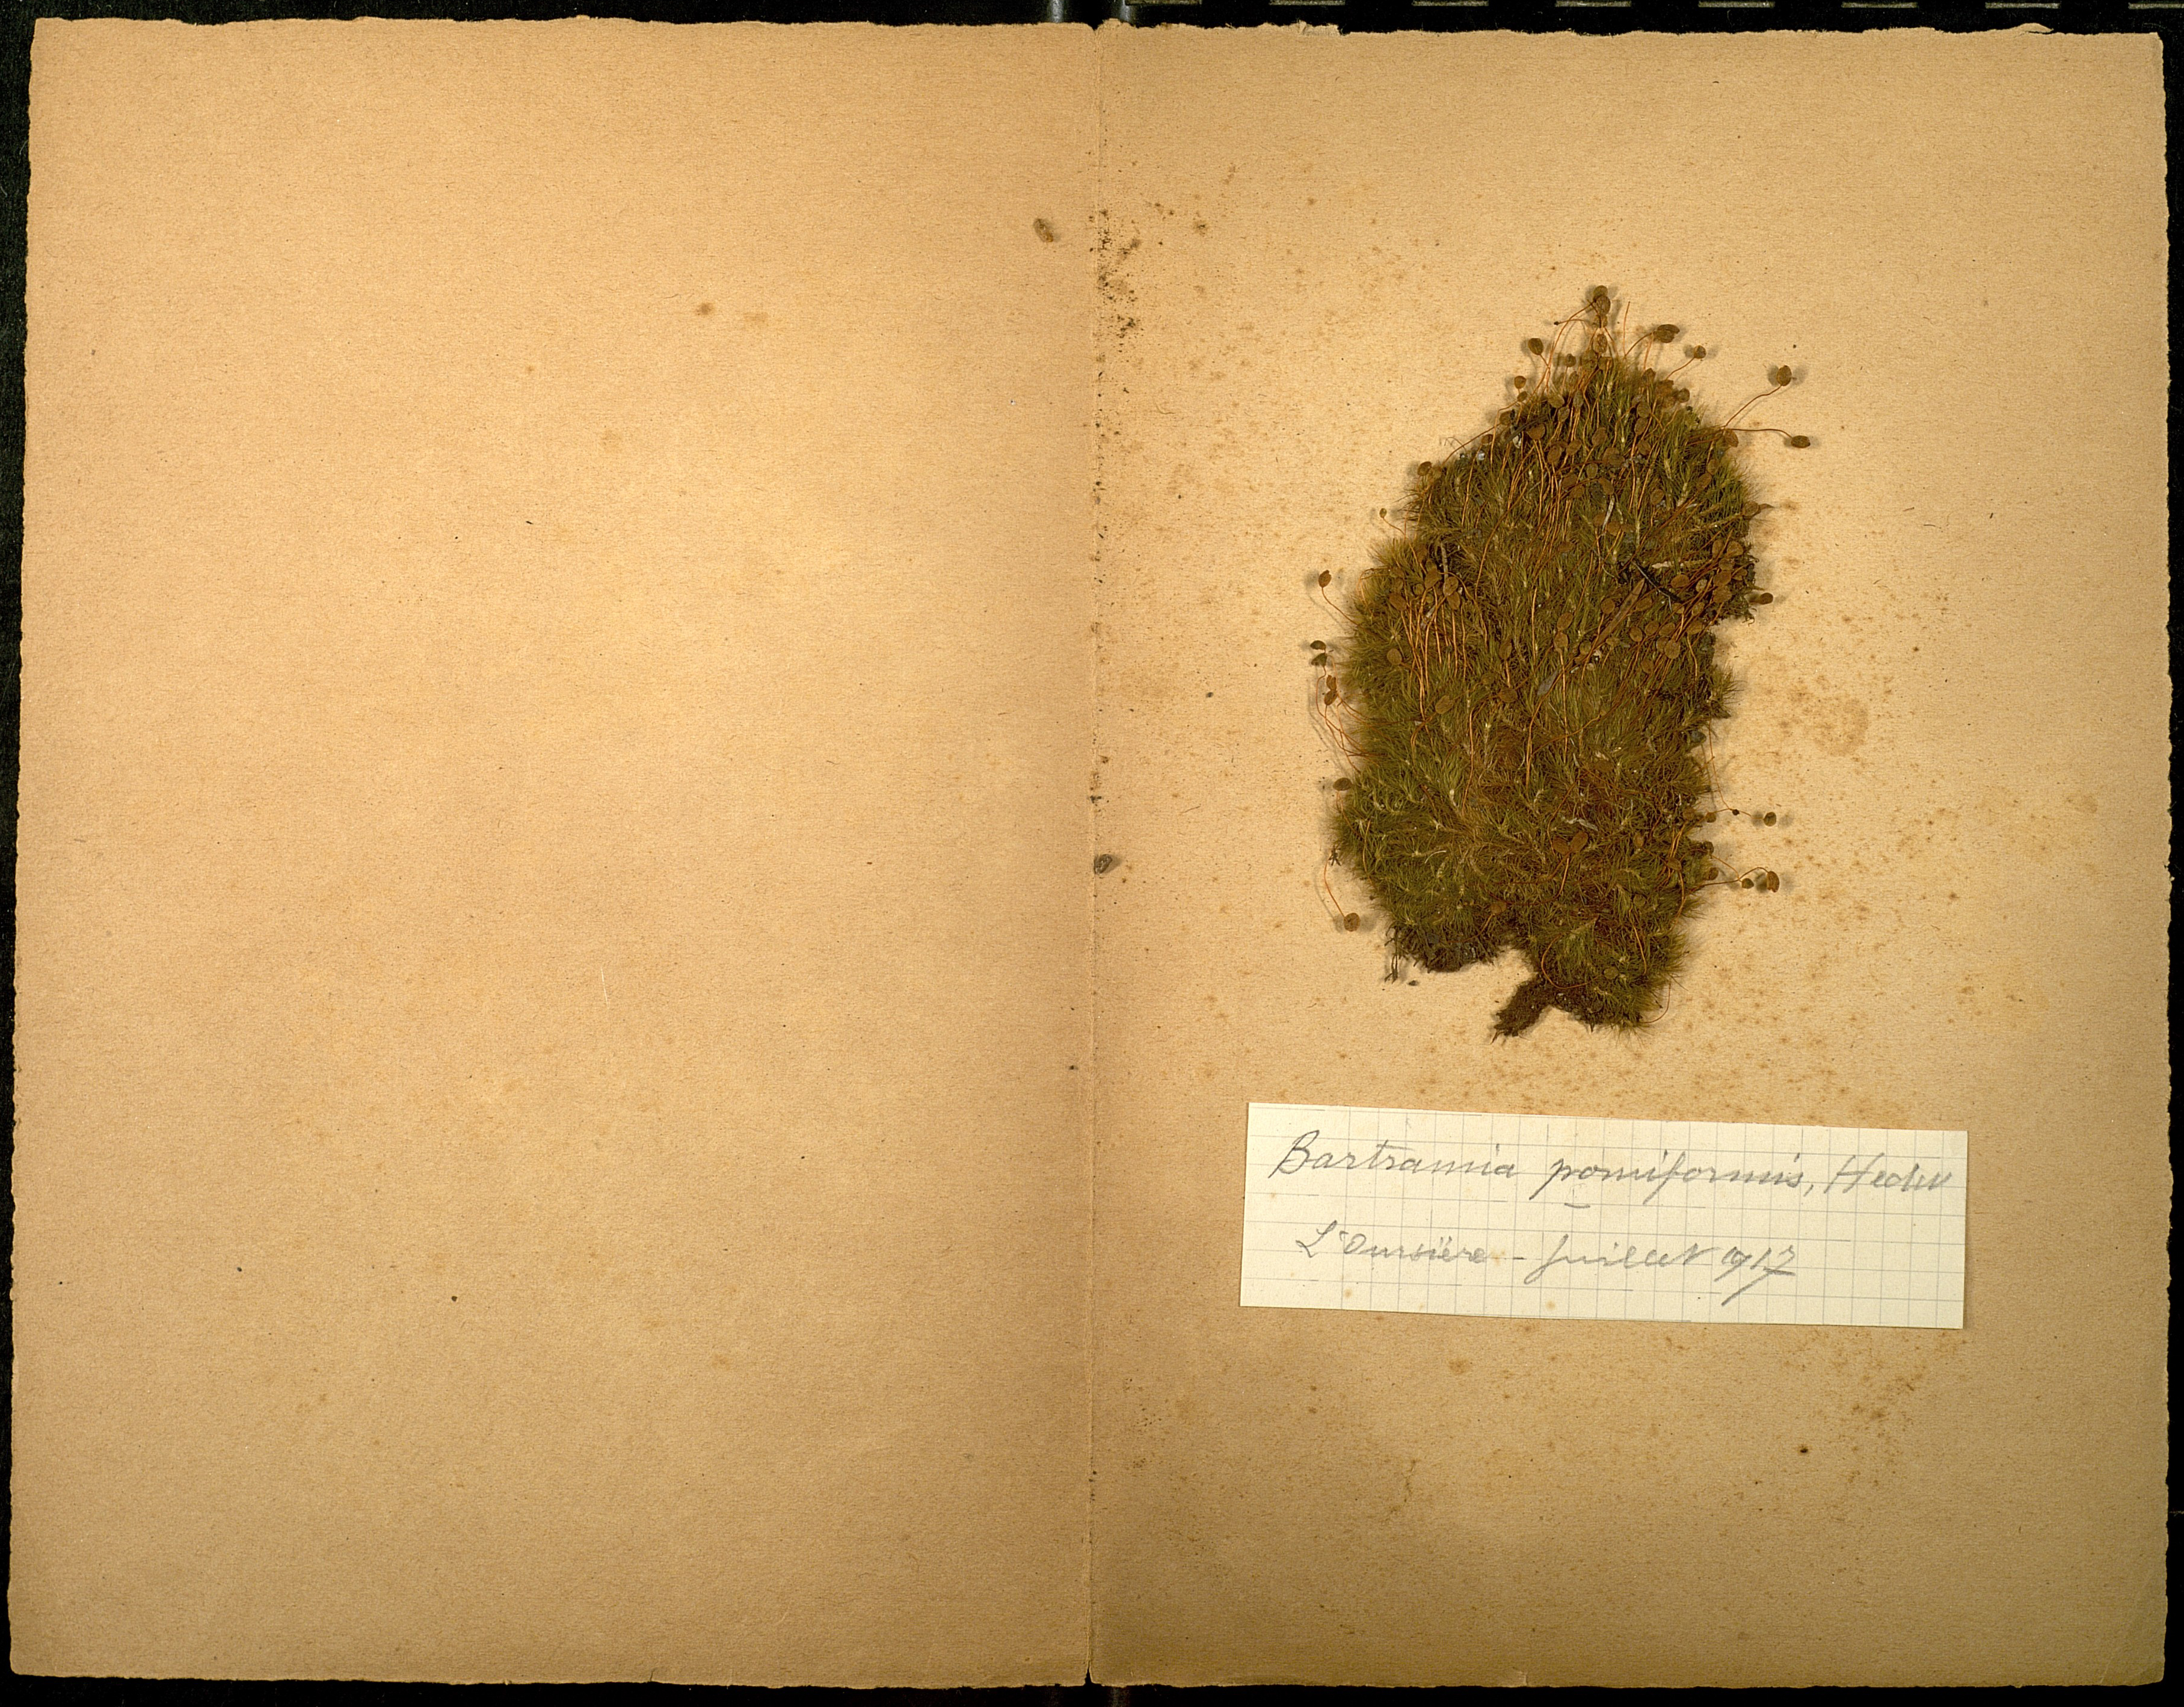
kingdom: Plantae
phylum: Bryophyta
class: Bryopsida
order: Bartramiales
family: Bartramiaceae
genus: Bartramia
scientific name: Bartramia ithyphylla
